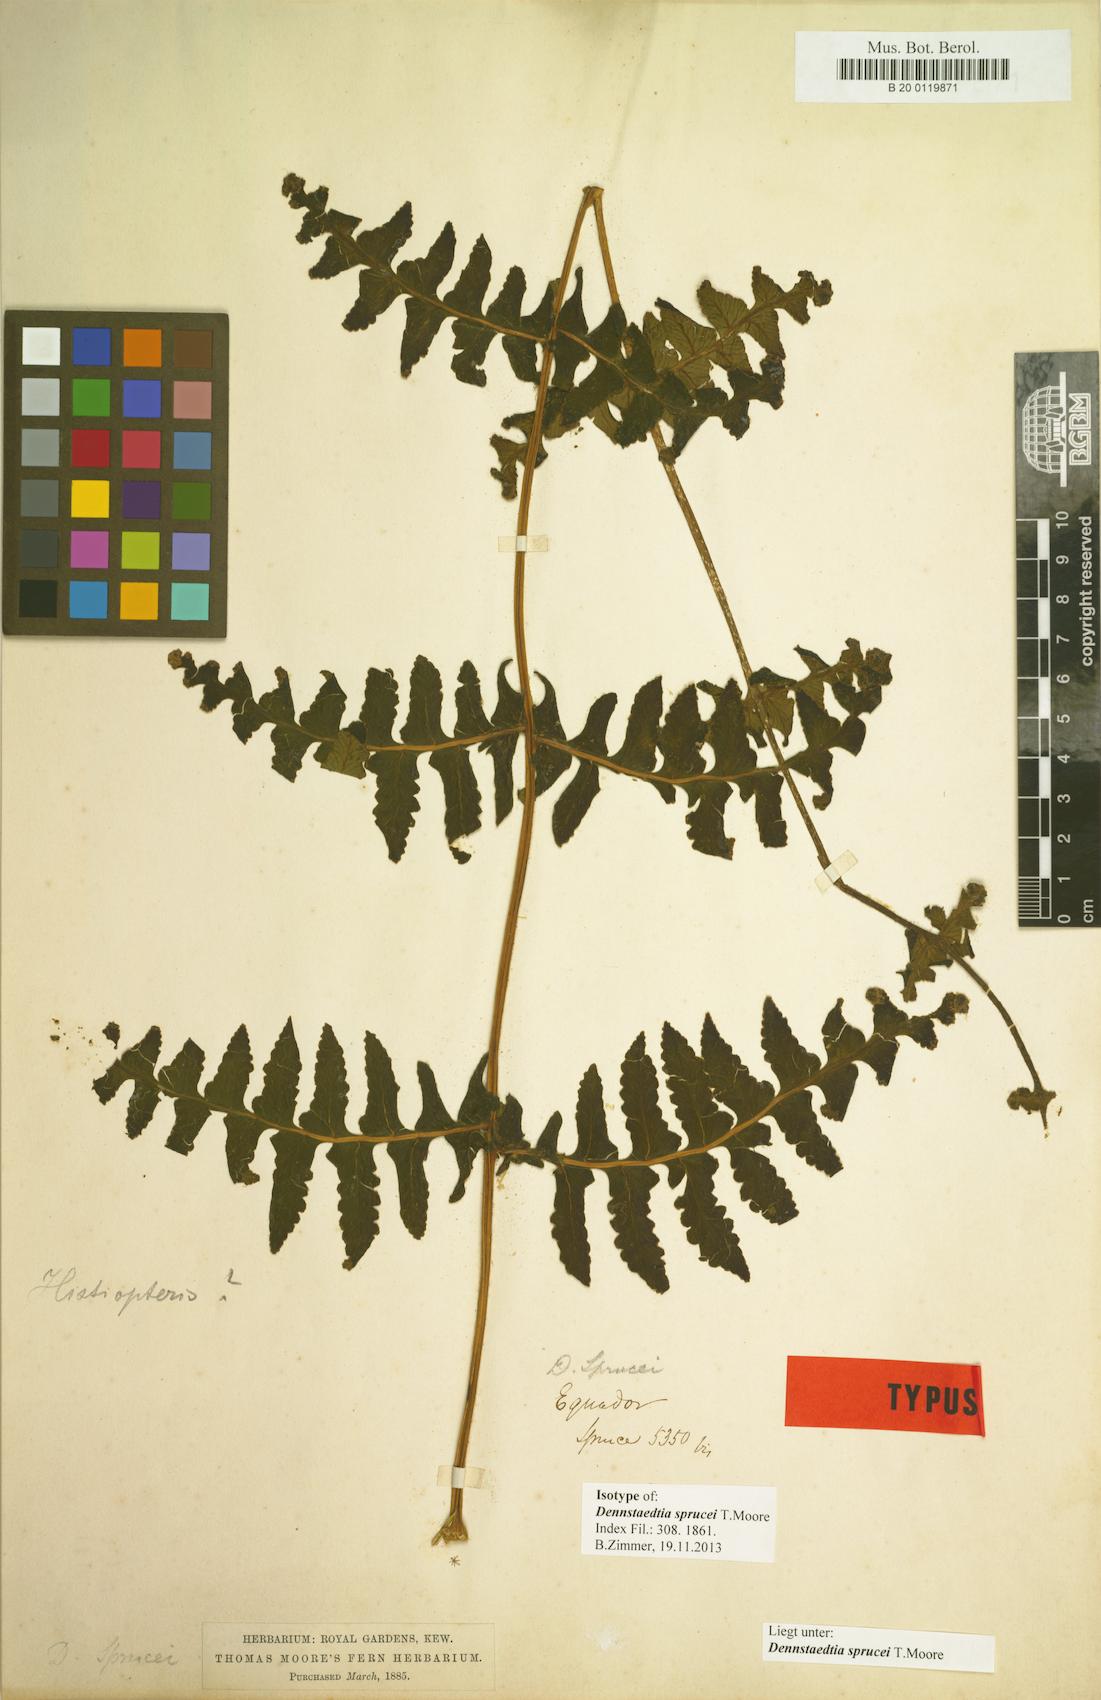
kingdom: Plantae
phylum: Tracheophyta
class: Polypodiopsida
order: Polypodiales
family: Dennstaedtiaceae
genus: Dennstaedtia
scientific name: Dennstaedtia sprucei
